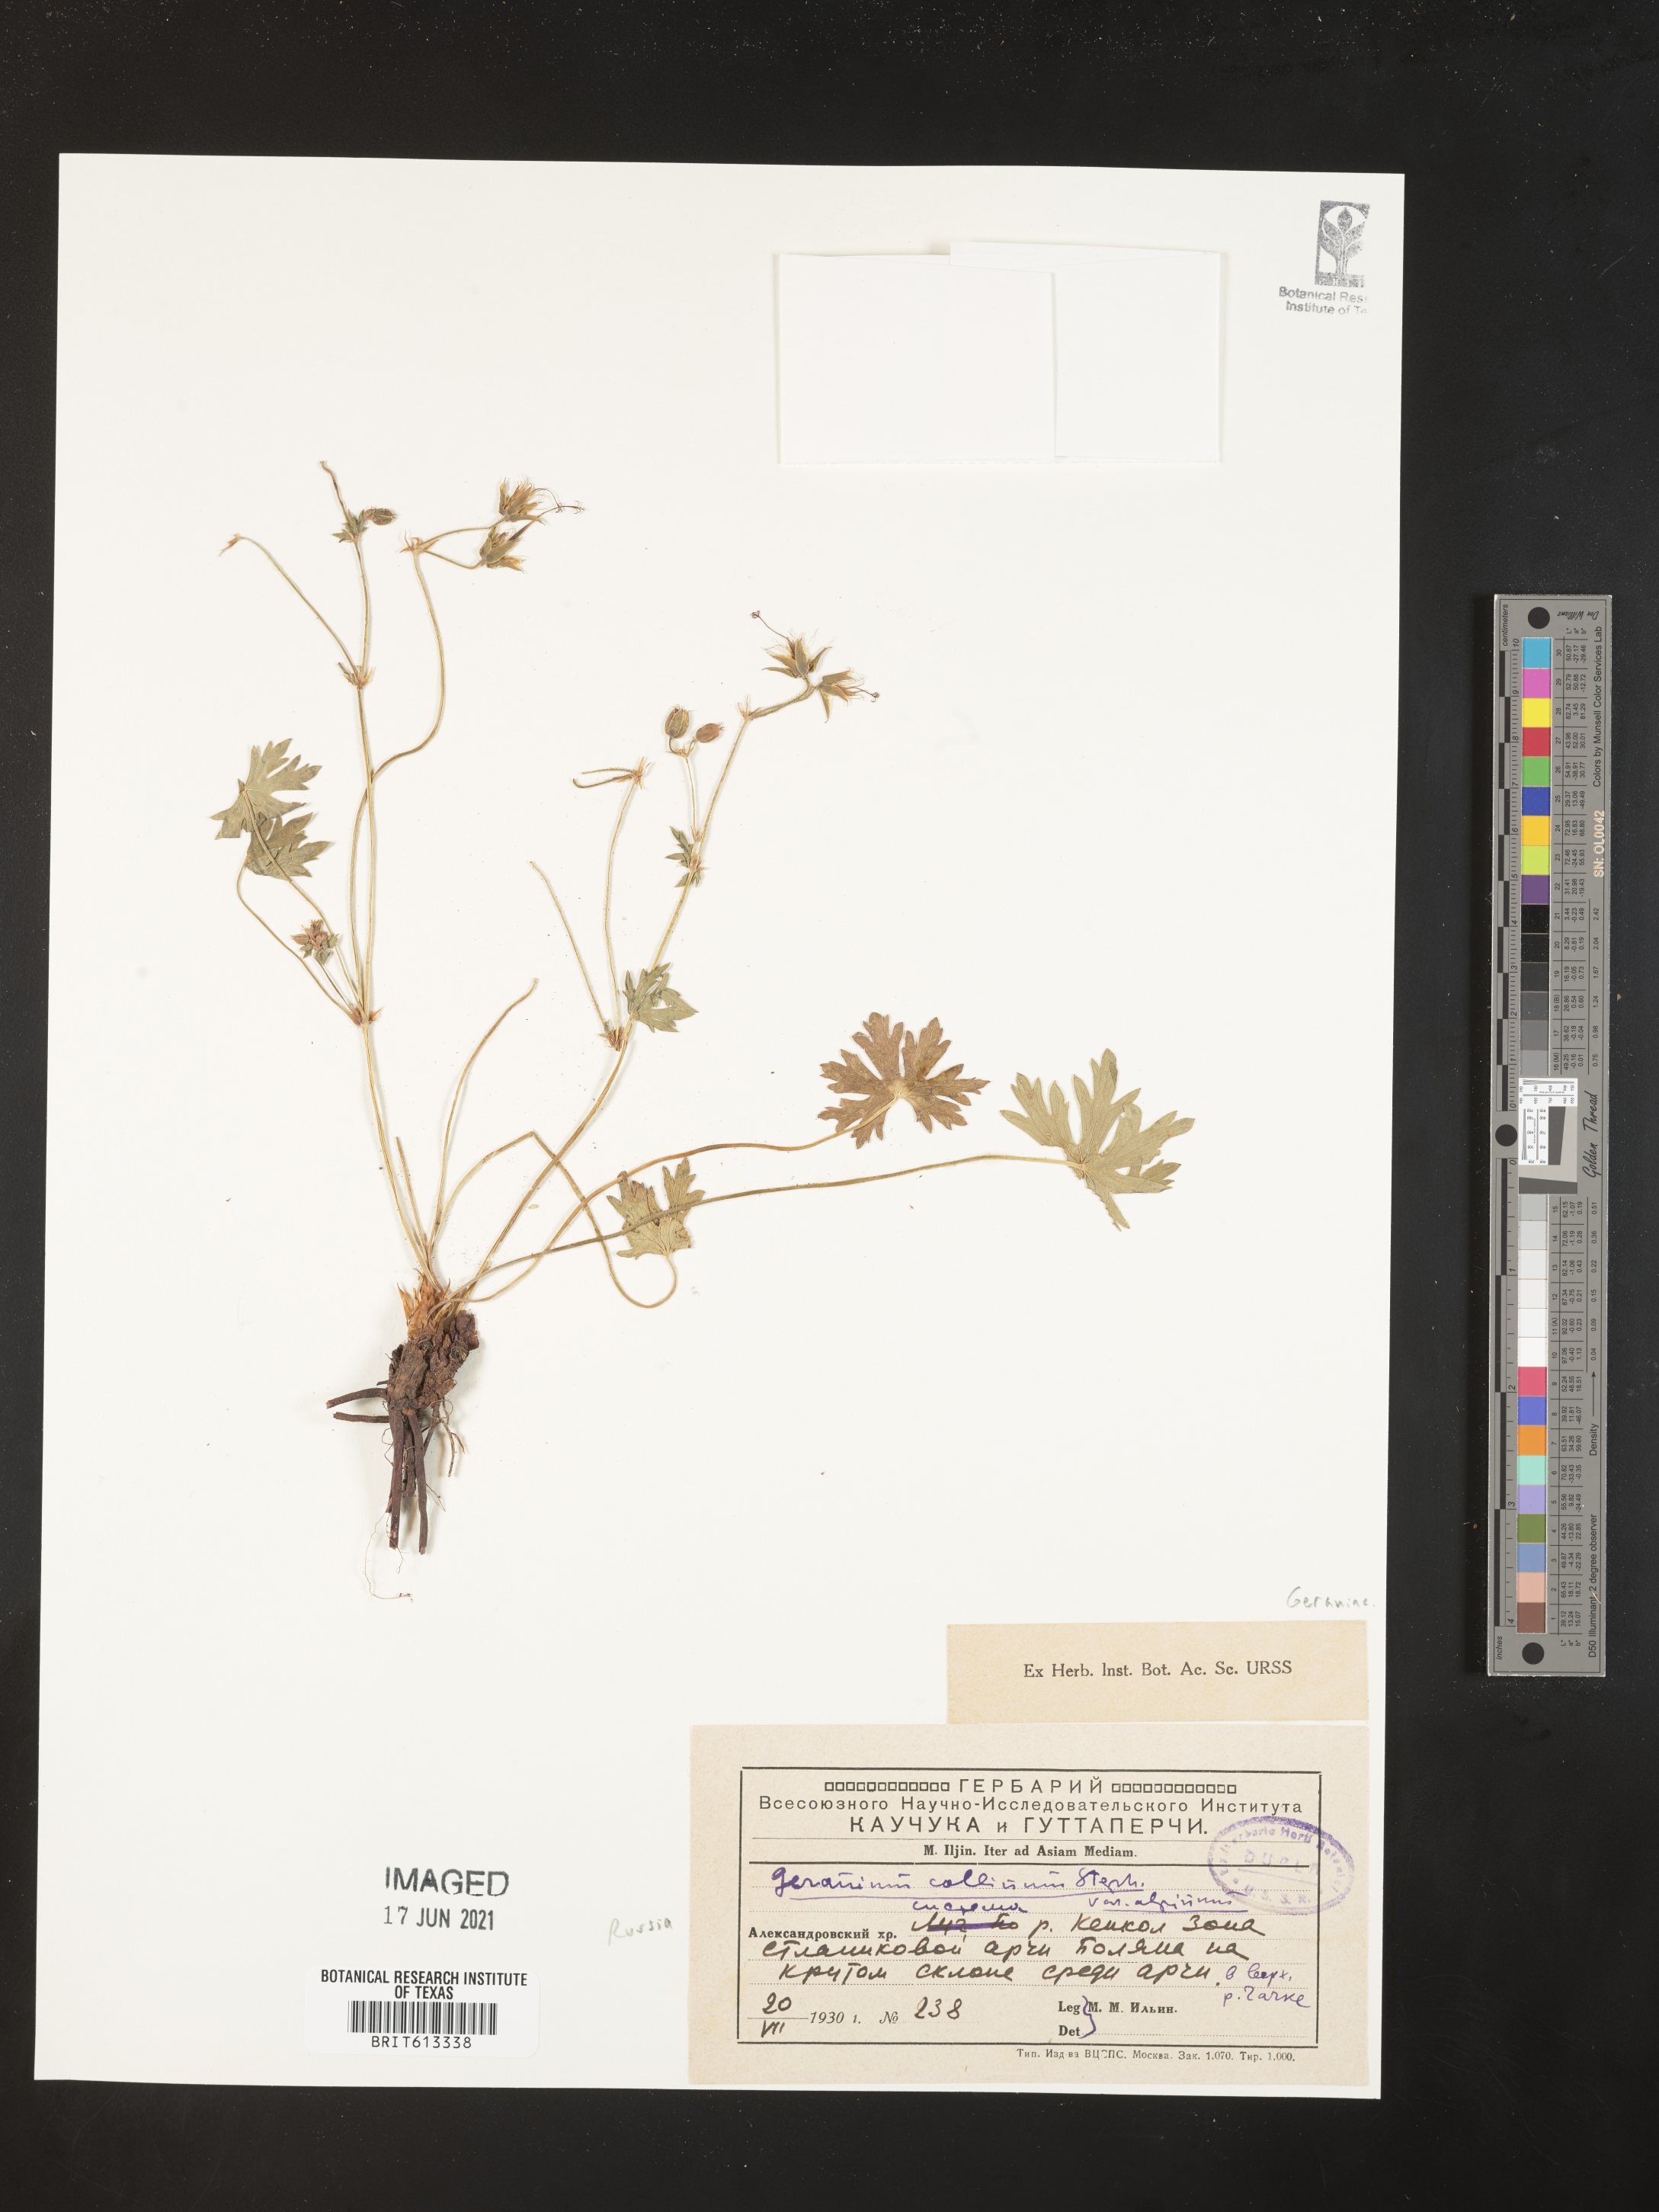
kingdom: Plantae
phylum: Tracheophyta
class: Magnoliopsida
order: Geraniales
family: Geraniaceae
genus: Geranium
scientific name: Geranium collinum
